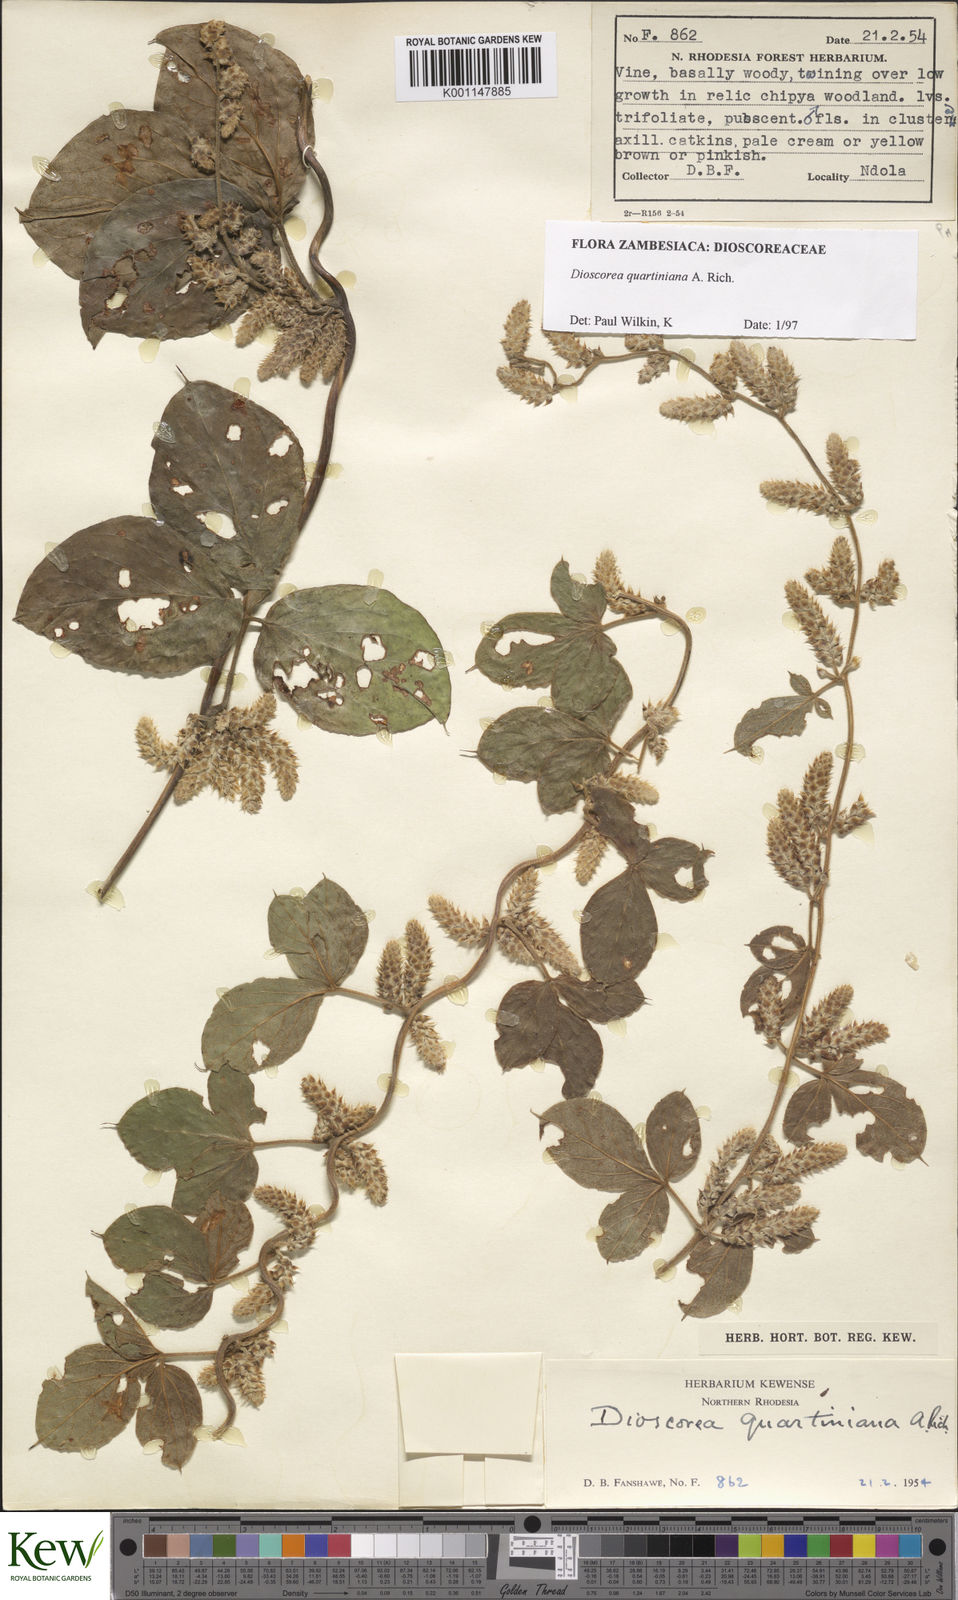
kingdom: Plantae
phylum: Tracheophyta
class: Liliopsida
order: Dioscoreales
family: Dioscoreaceae
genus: Dioscorea
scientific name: Dioscorea quartiniana
